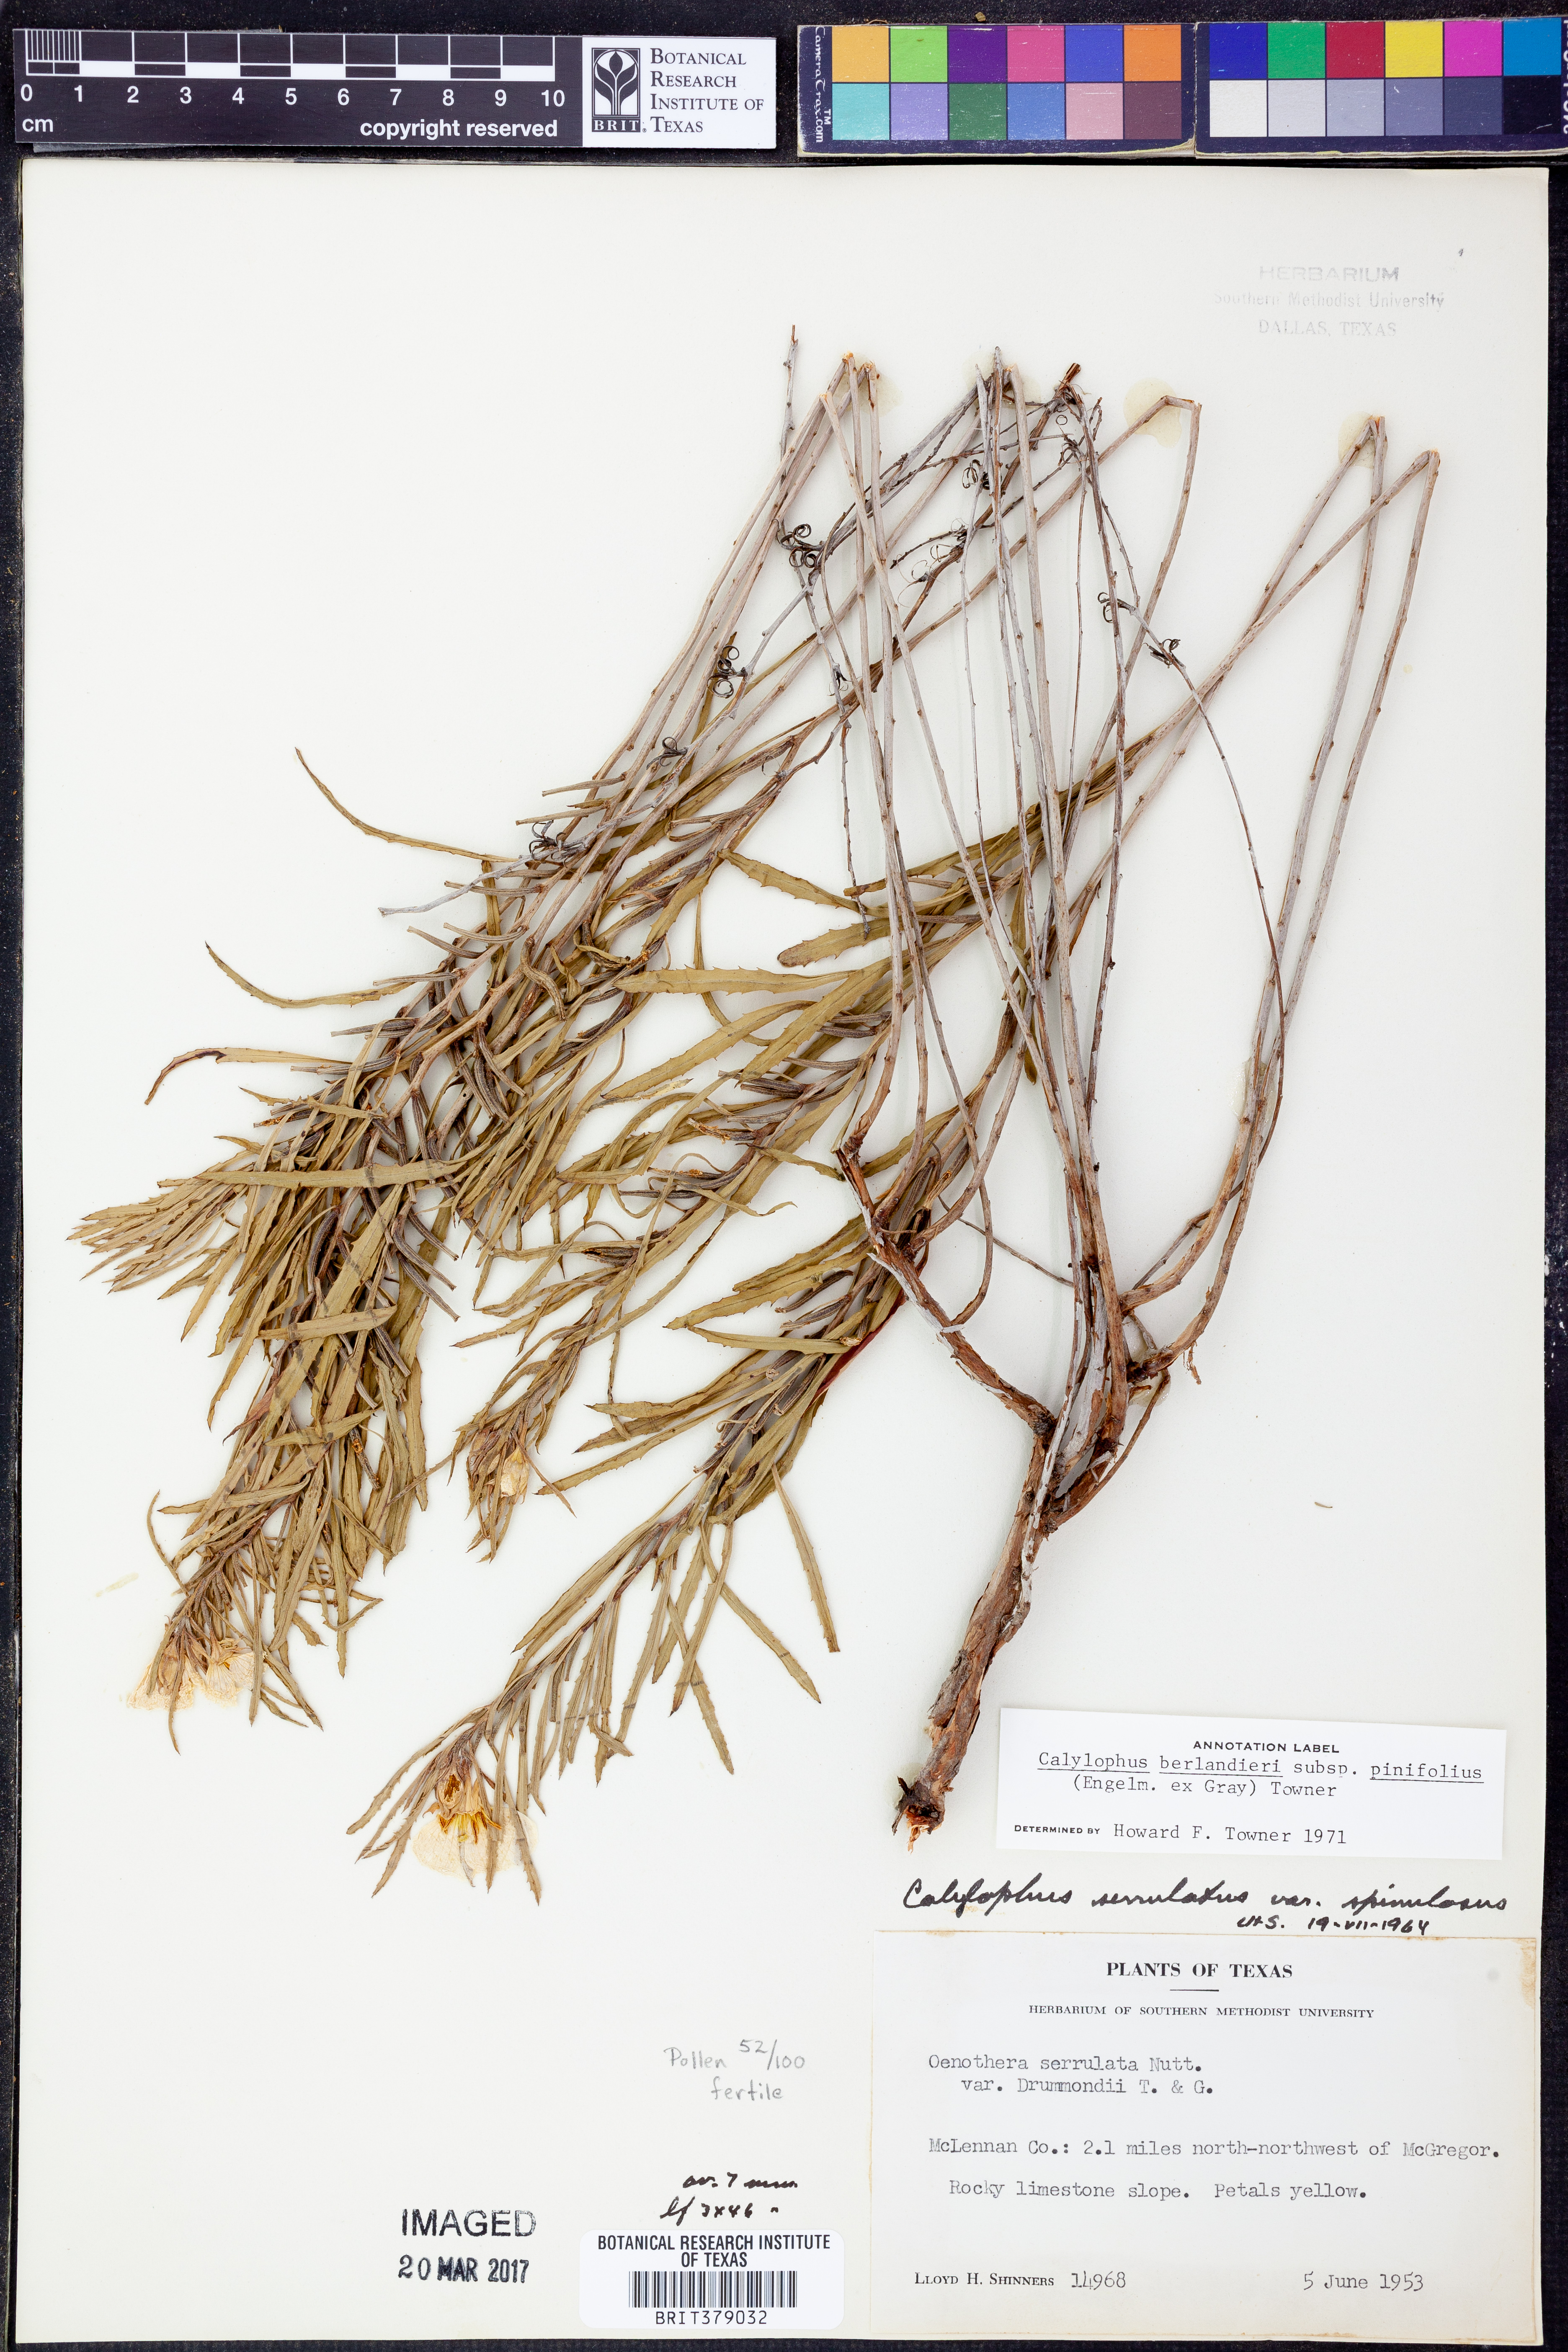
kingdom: Plantae
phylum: Tracheophyta
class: Magnoliopsida
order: Myrtales
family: Onagraceae
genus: Oenothera
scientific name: Oenothera capillifolia
